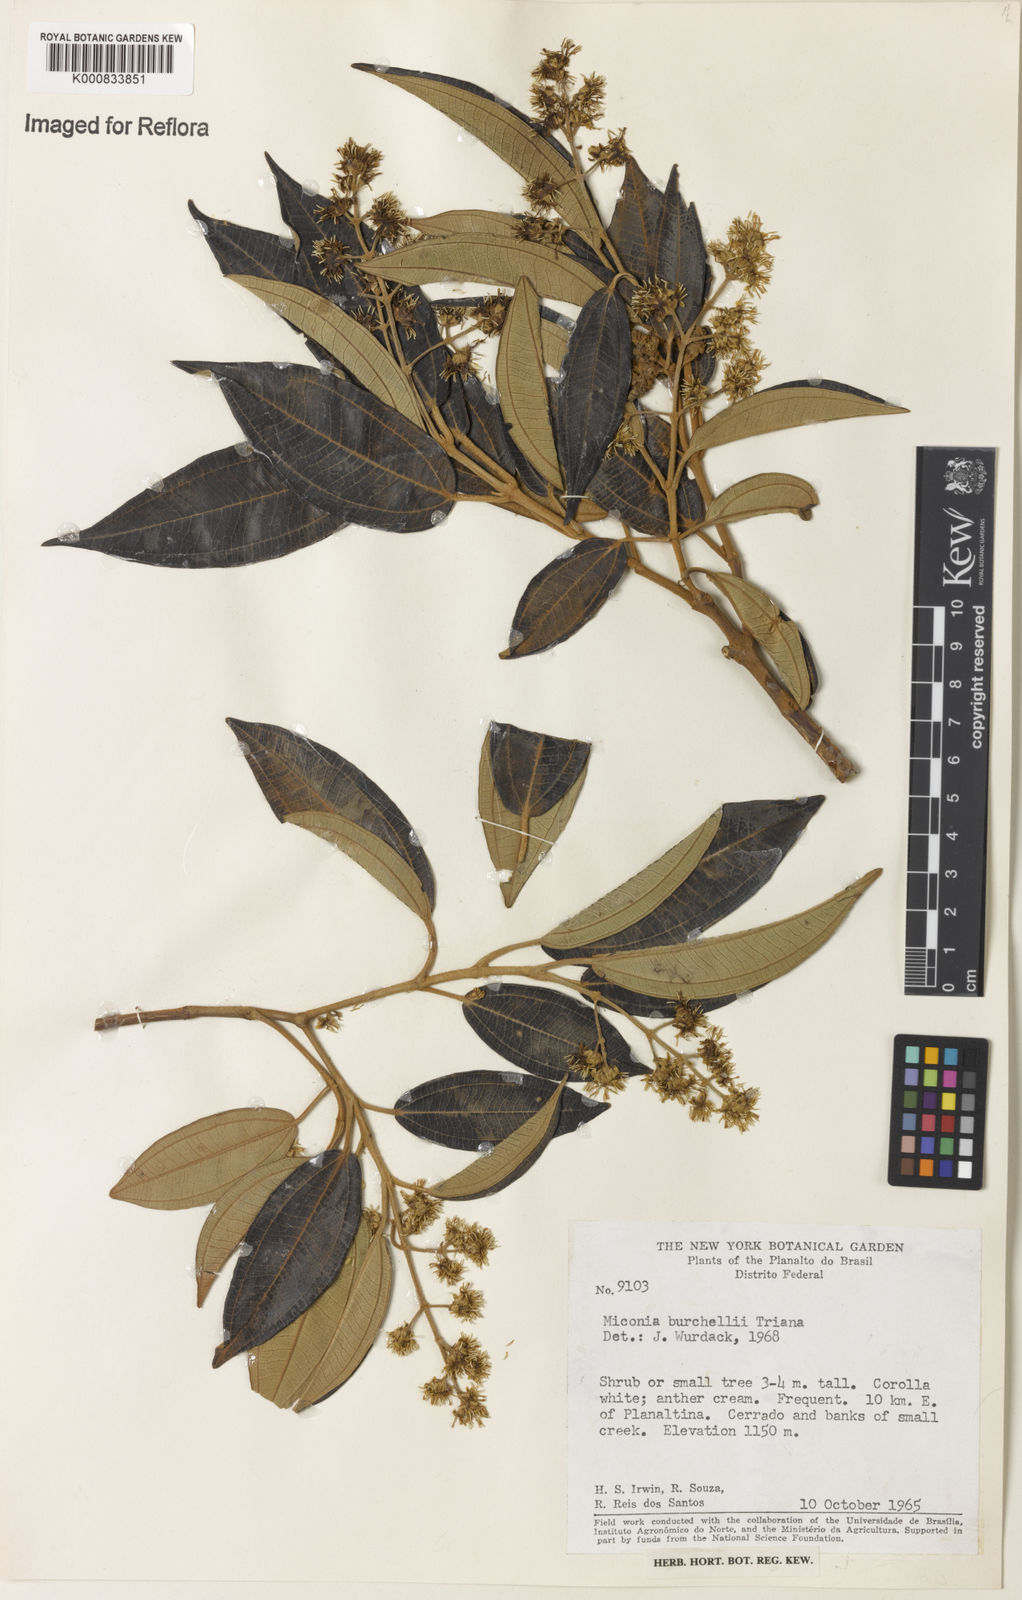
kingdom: Plantae
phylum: Tracheophyta
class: Magnoliopsida
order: Myrtales
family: Melastomataceae
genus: Miconia
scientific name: Miconia burchellii
